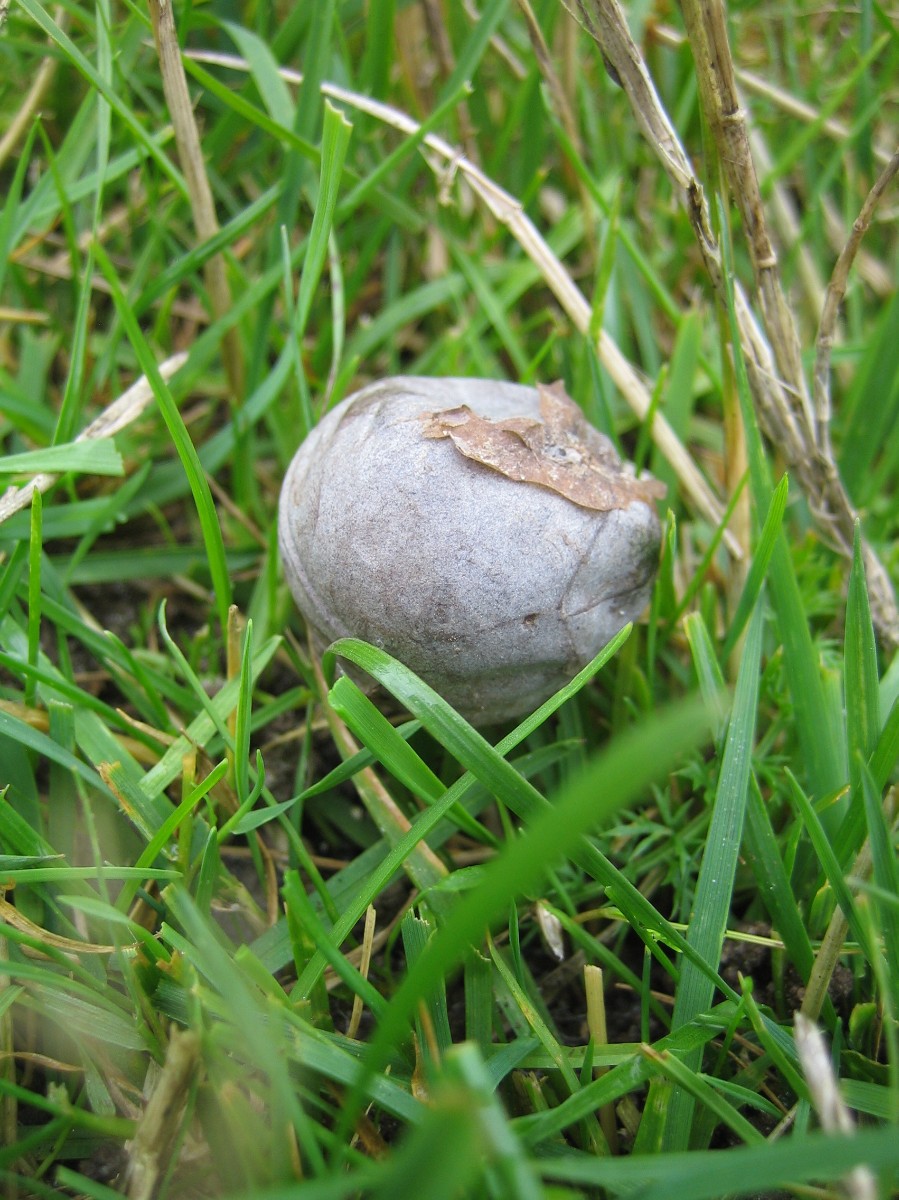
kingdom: Fungi
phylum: Basidiomycota
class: Agaricomycetes
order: Agaricales
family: Lycoperdaceae
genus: Bovista
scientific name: Bovista plumbea
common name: blygrå bovist
